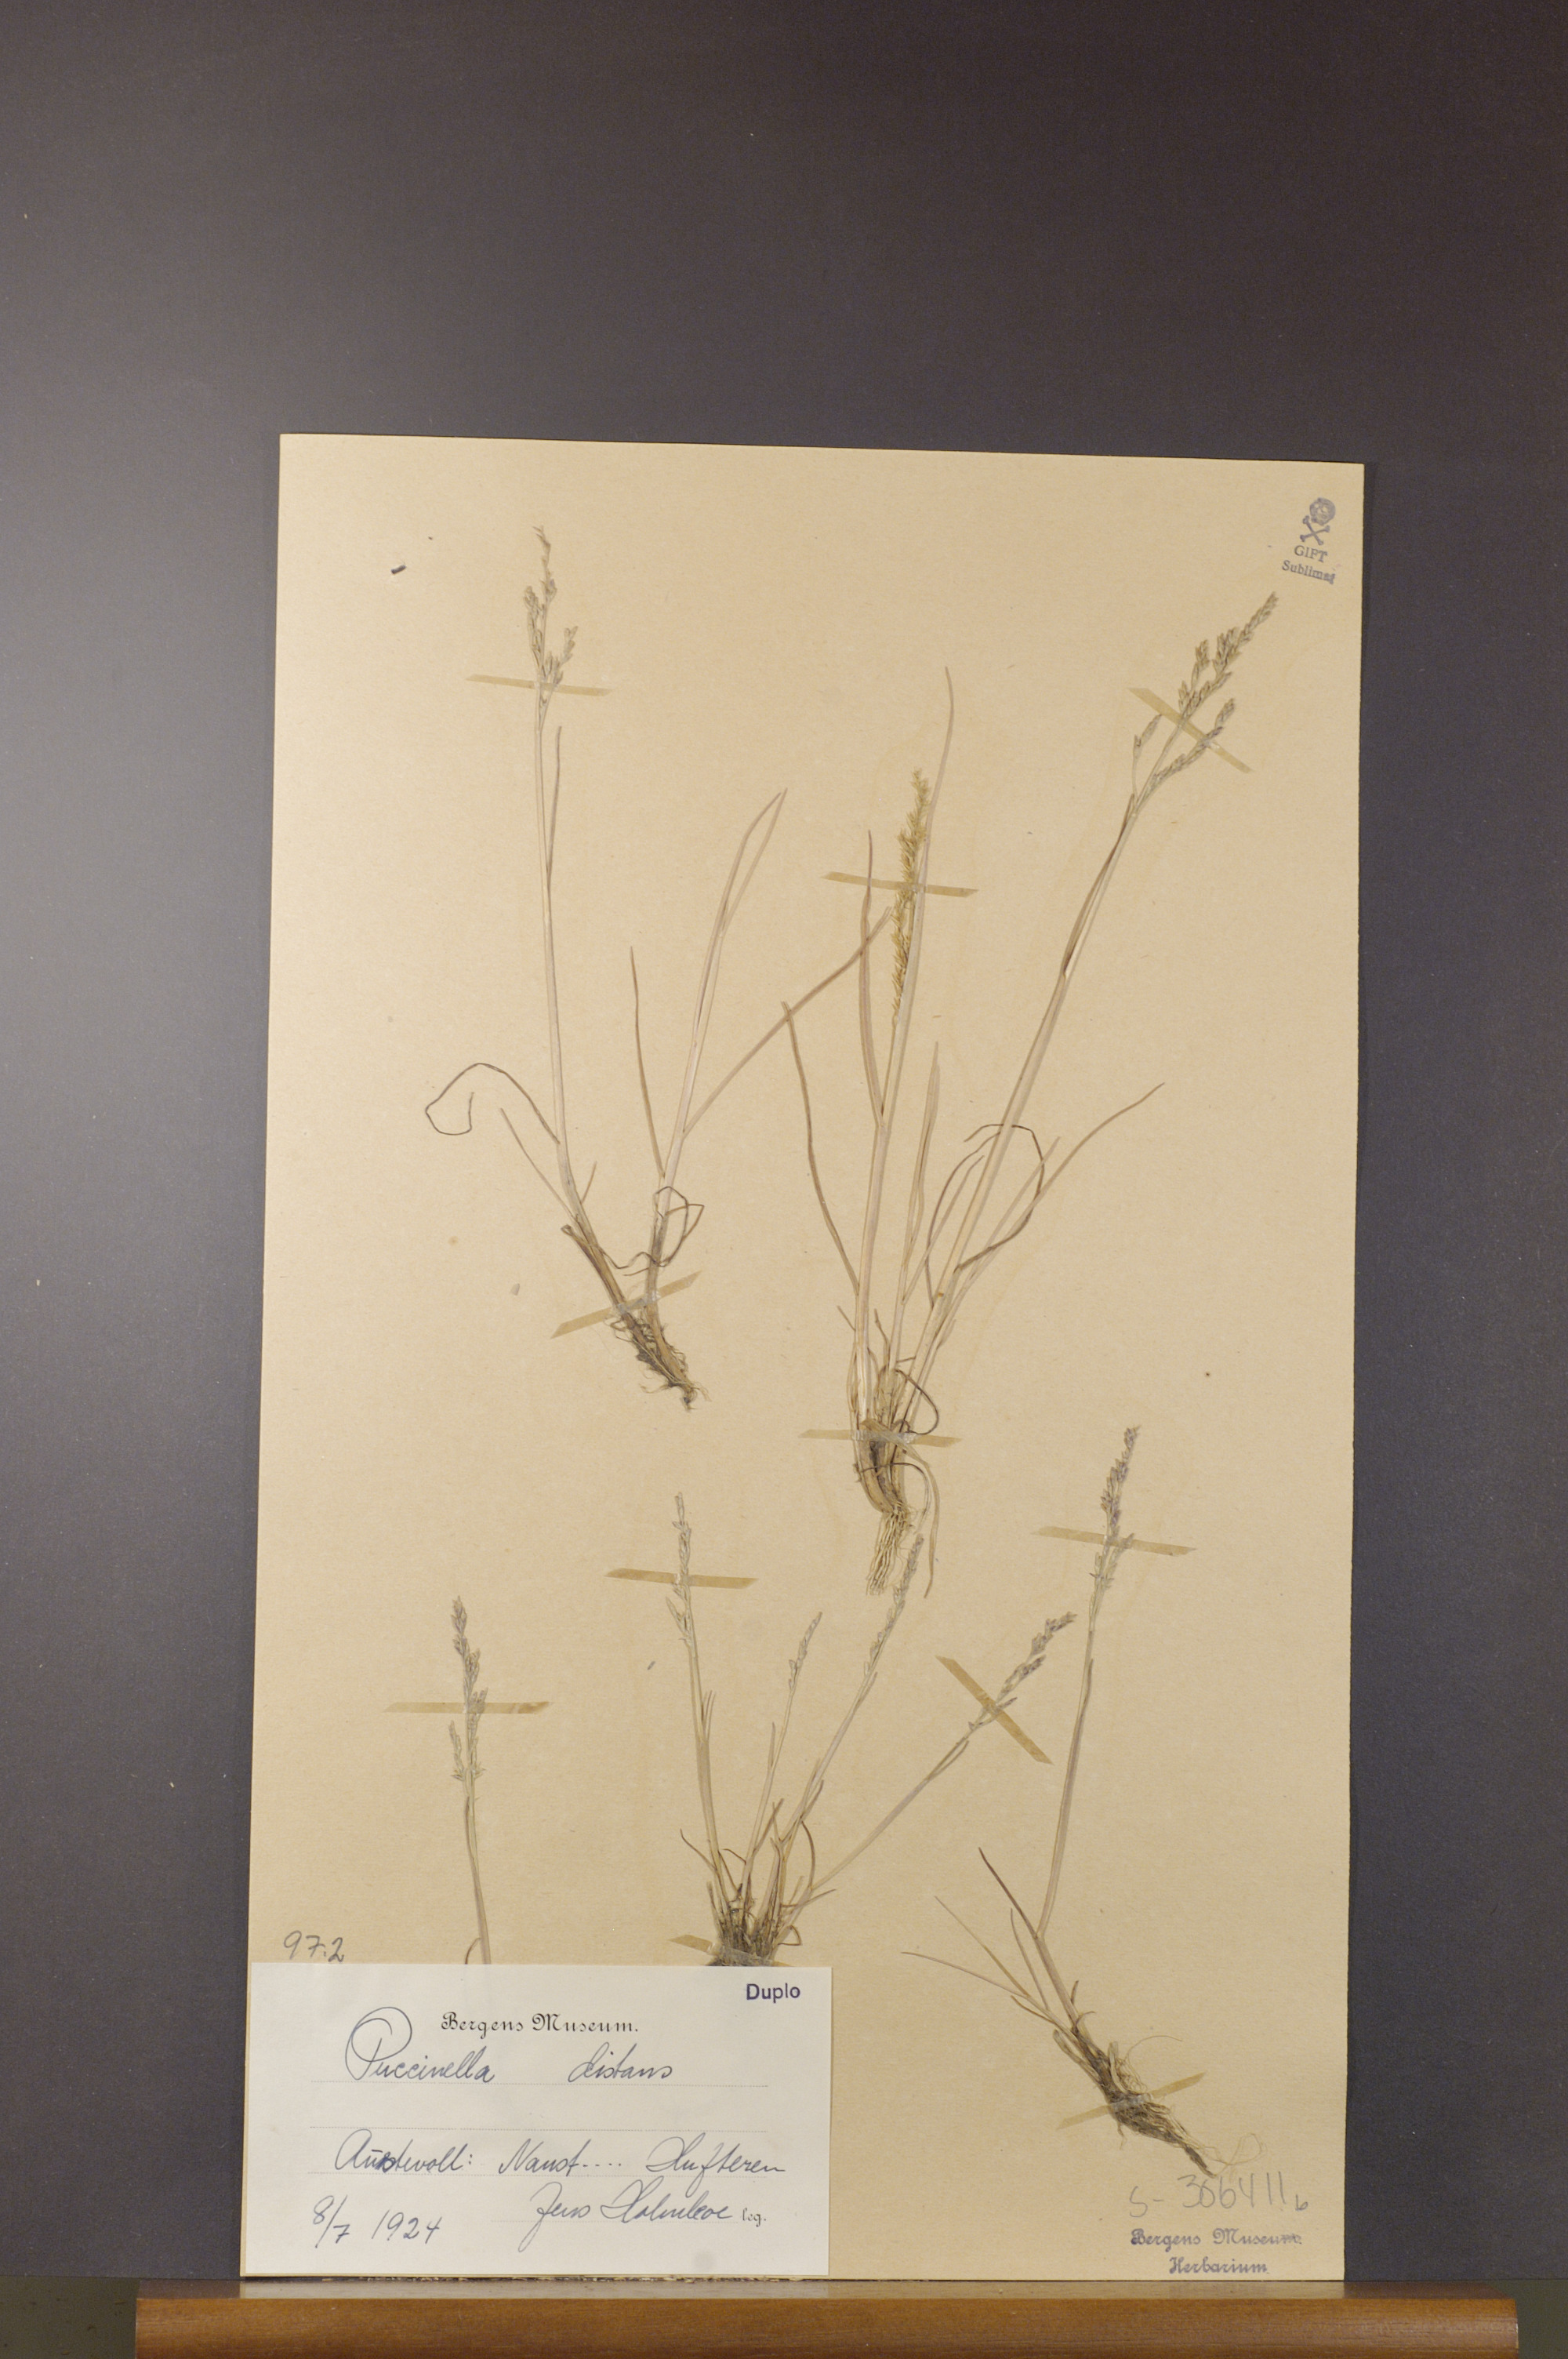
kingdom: Plantae
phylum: Tracheophyta
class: Liliopsida
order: Poales
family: Poaceae
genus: Puccinellia
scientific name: Puccinellia distans
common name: Weeping alkaligrass
